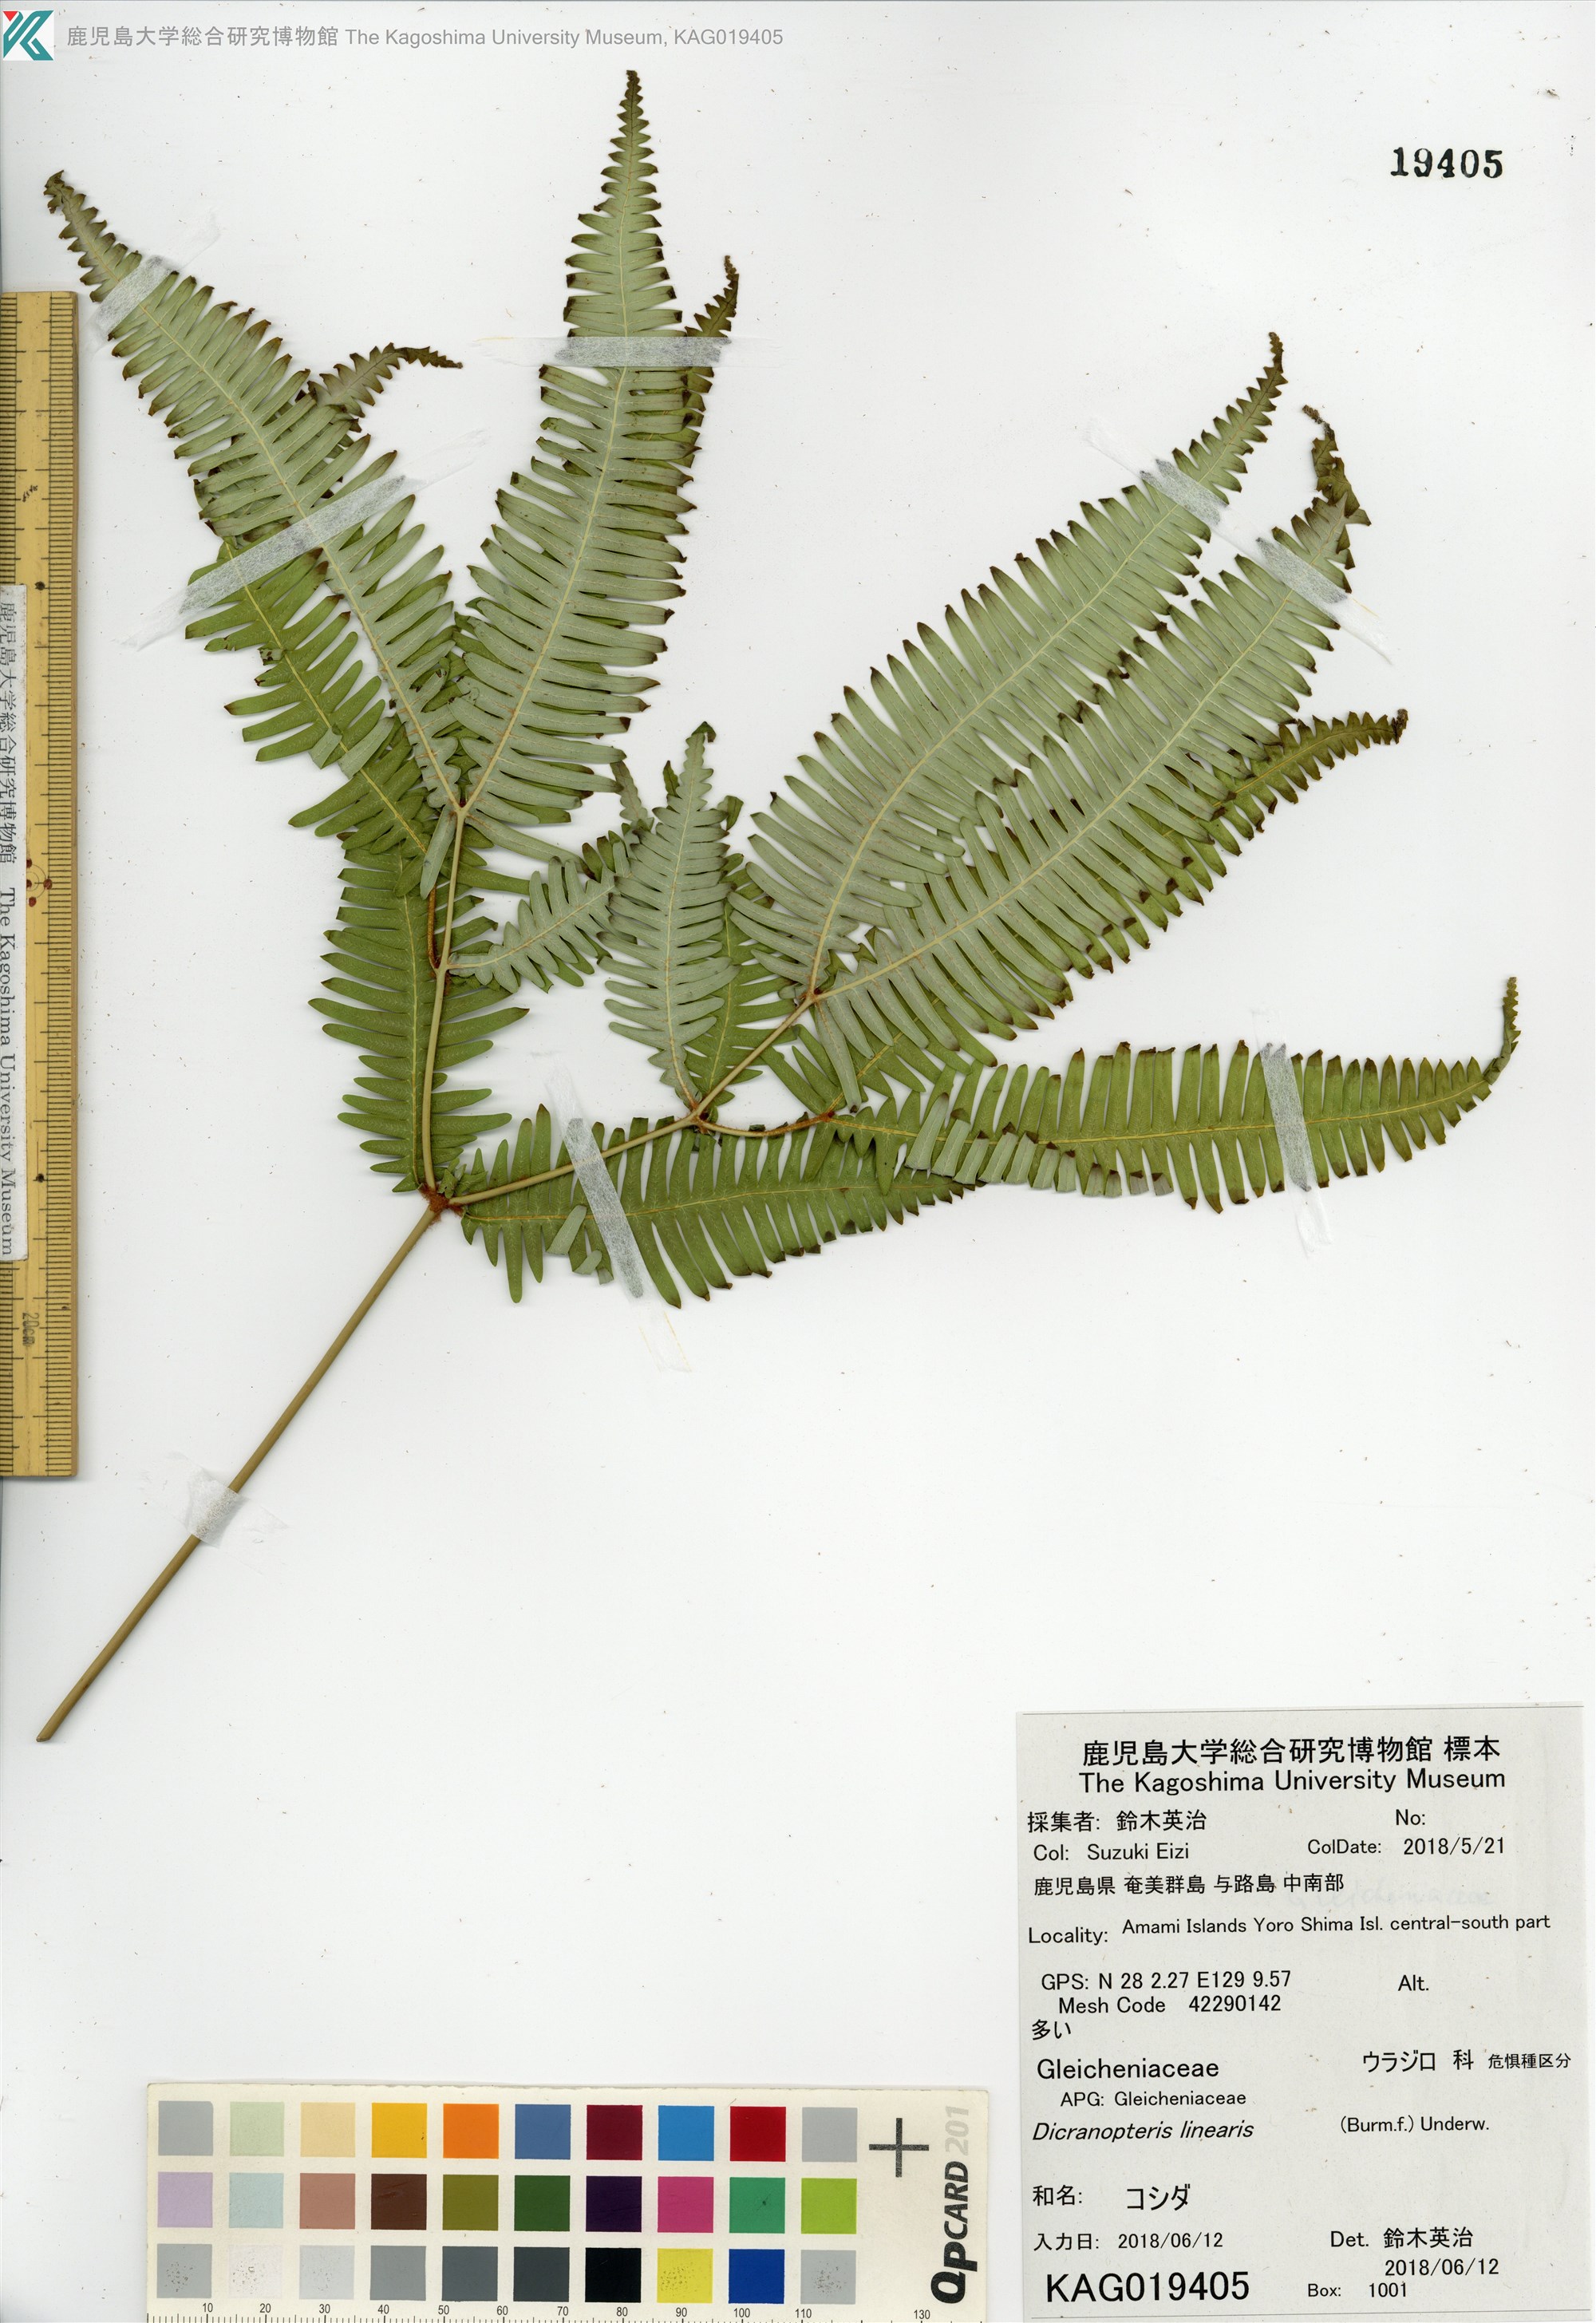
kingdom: Plantae
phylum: Tracheophyta
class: Polypodiopsida
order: Gleicheniales
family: Gleicheniaceae
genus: Dicranopteris
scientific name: Dicranopteris pedata
